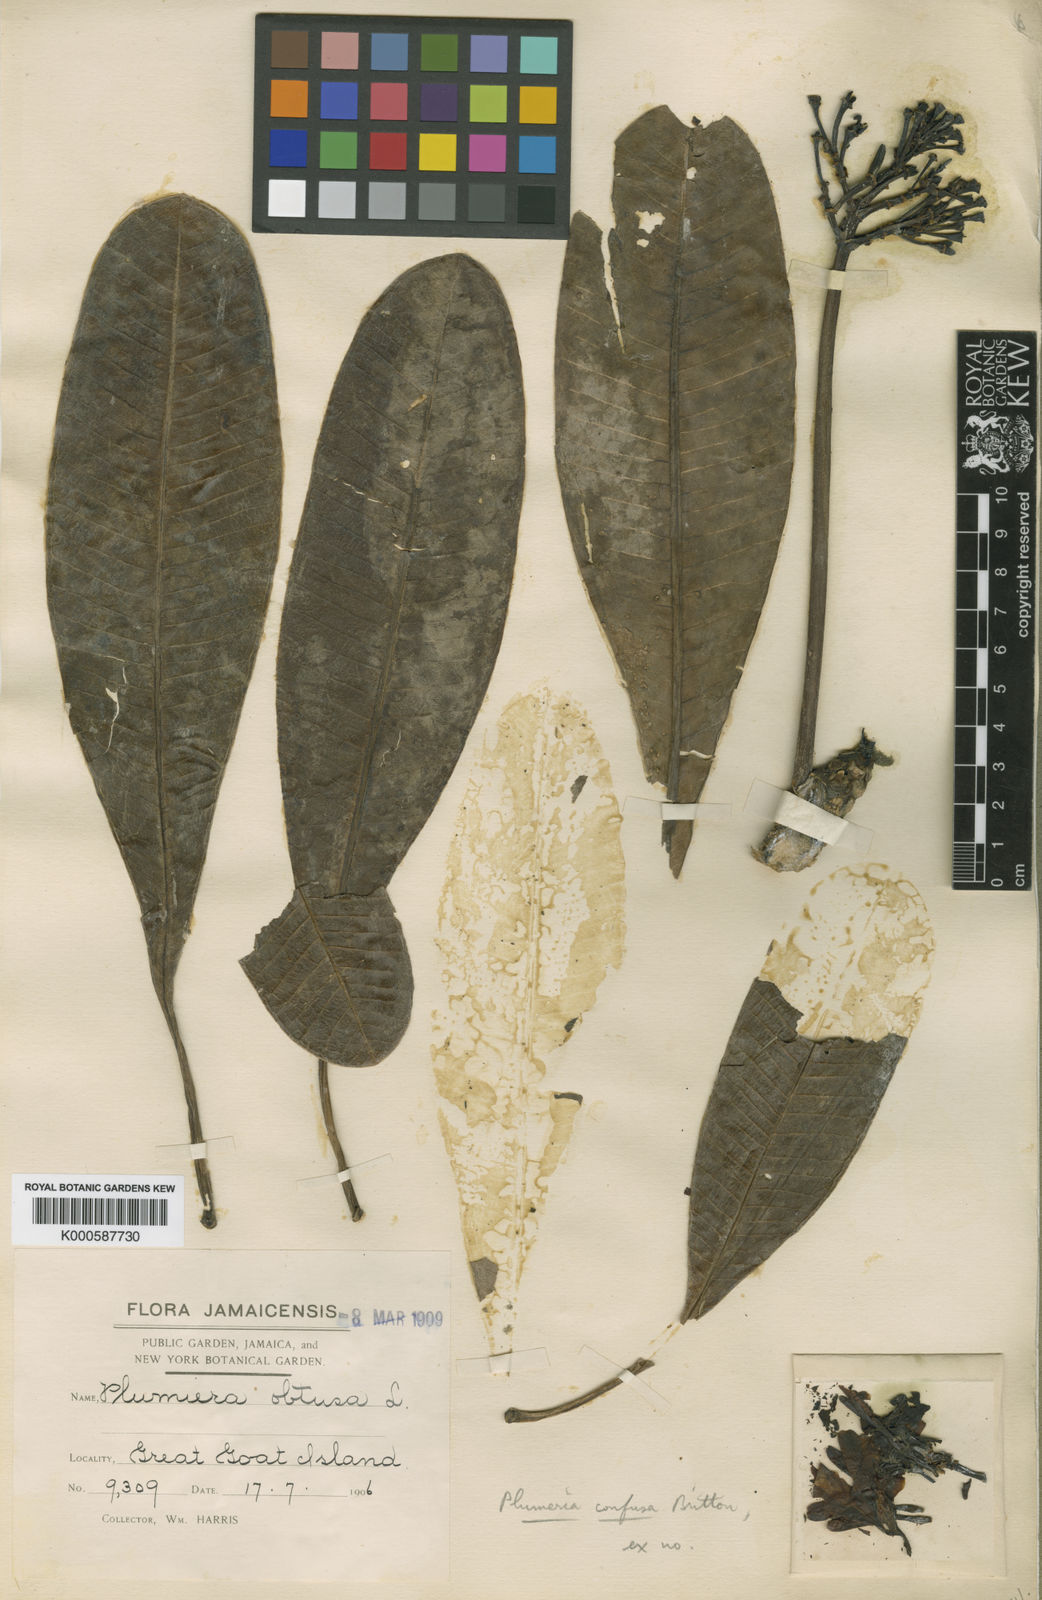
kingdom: Plantae
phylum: Tracheophyta
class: Magnoliopsida
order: Gentianales
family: Apocynaceae
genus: Plumeria
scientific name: Plumeria obtusa
